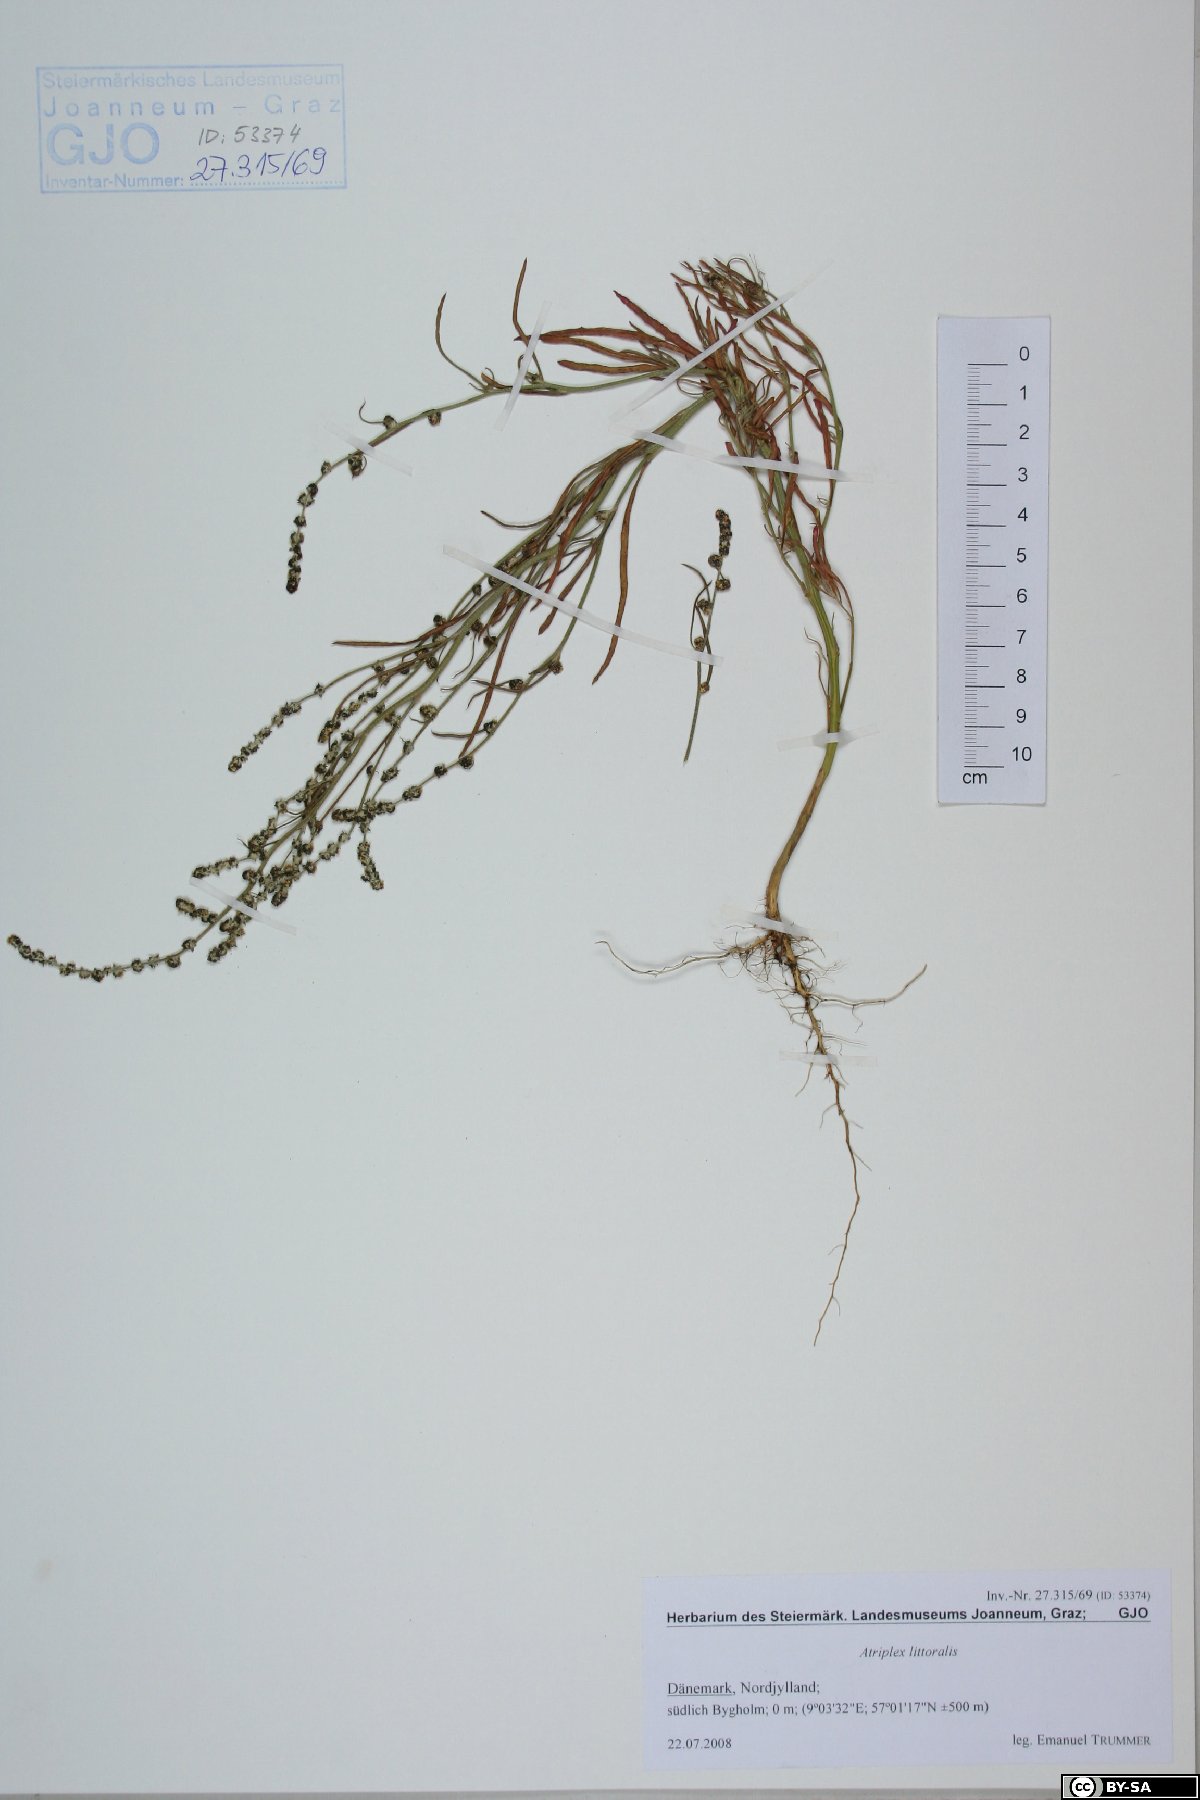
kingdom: Plantae
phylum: Tracheophyta
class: Magnoliopsida
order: Caryophyllales
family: Amaranthaceae
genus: Atriplex
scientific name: Atriplex littoralis
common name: Grass-leaved orache
